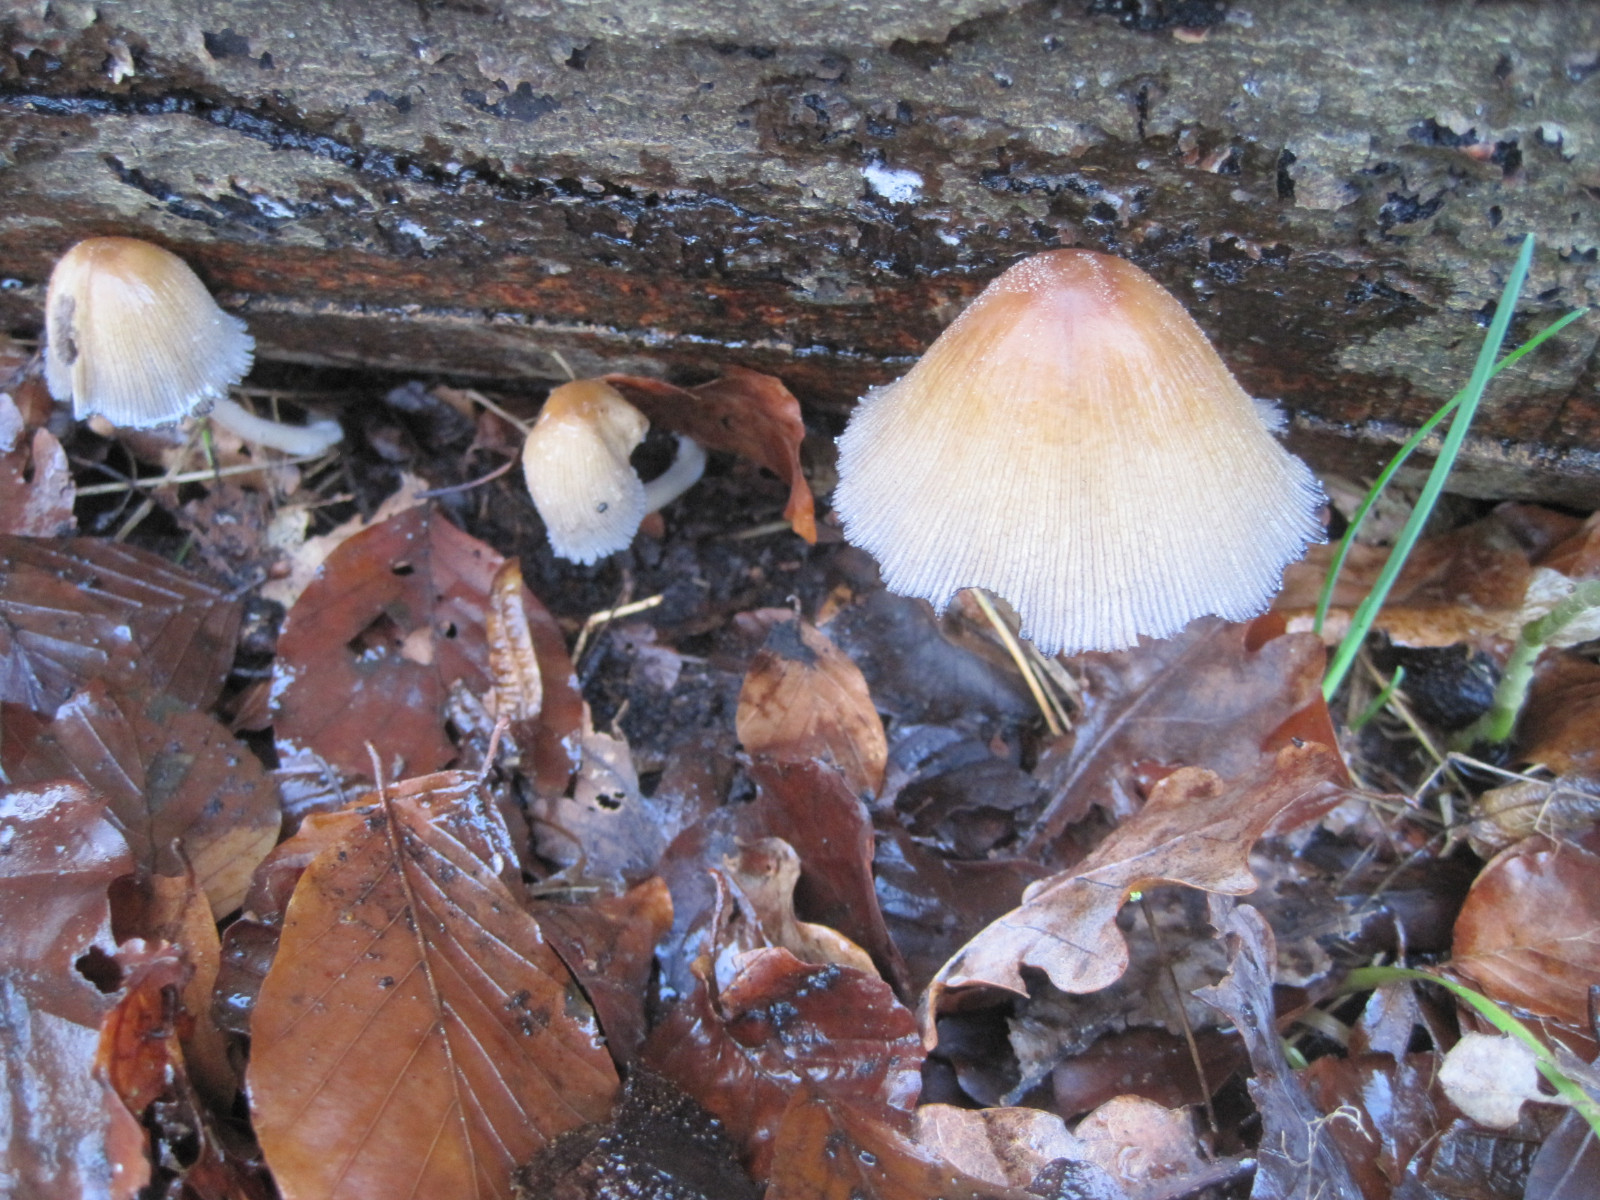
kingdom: Fungi
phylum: Basidiomycota
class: Agaricomycetes
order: Agaricales
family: Psathyrellaceae
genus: Coprinellus
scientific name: Coprinellus micaceus
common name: glimmer-blækhat
